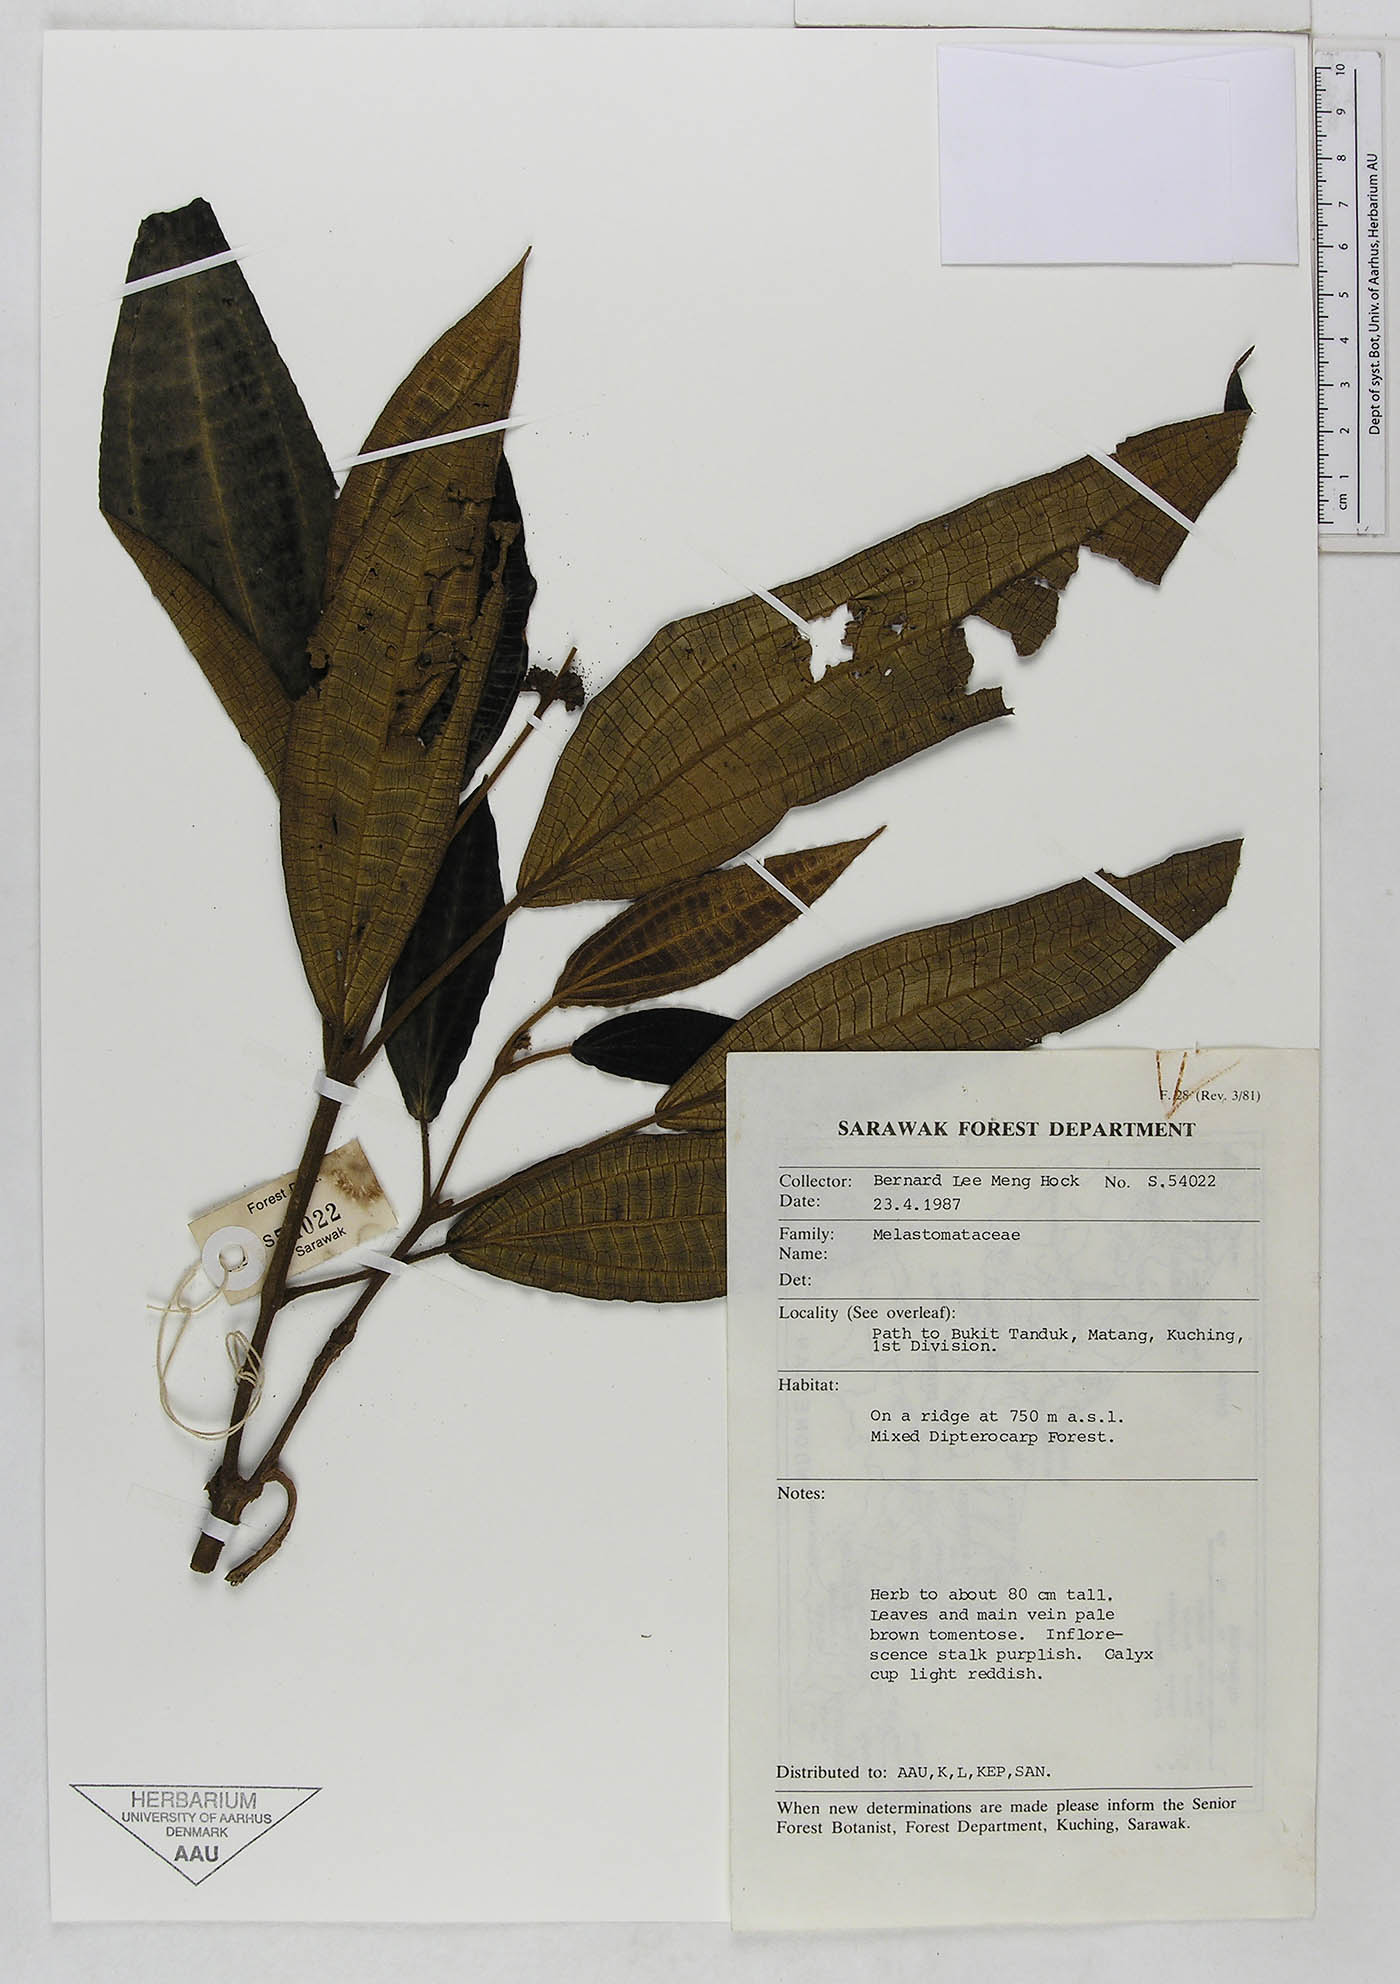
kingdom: Plantae
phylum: Tracheophyta
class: Magnoliopsida
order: Myrtales
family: Melastomataceae
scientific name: Melastomataceae
